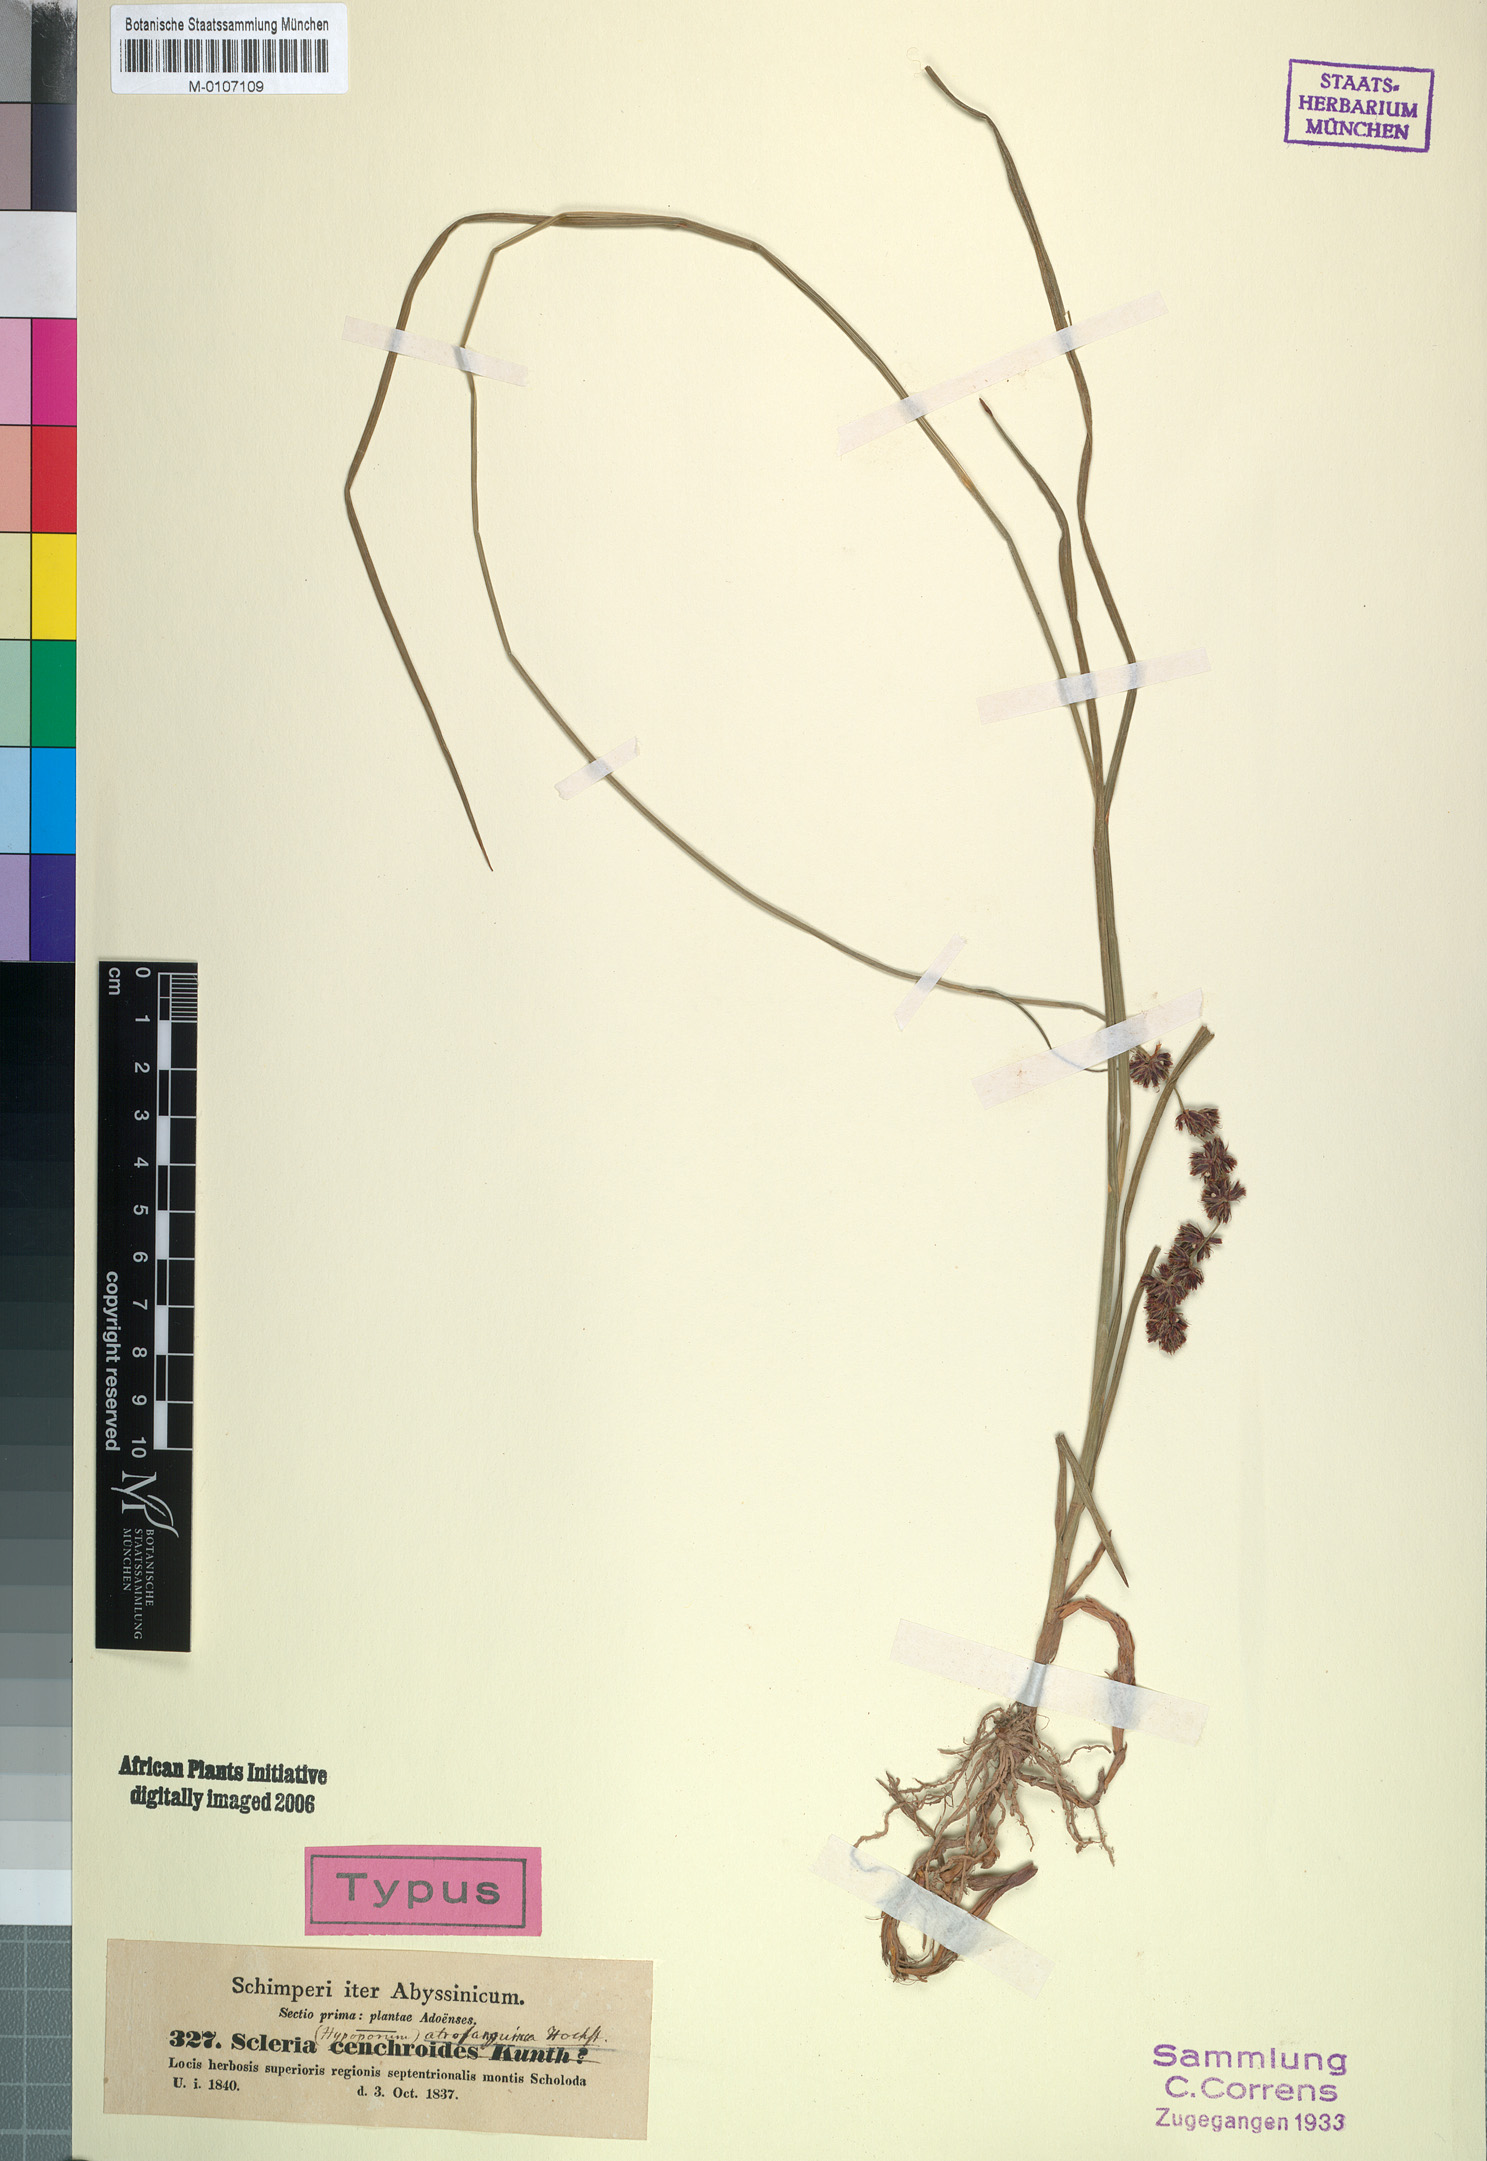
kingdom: Plantae
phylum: Tracheophyta
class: Liliopsida
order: Poales
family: Cyperaceae
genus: Scleria
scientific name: Scleria bulbifera
